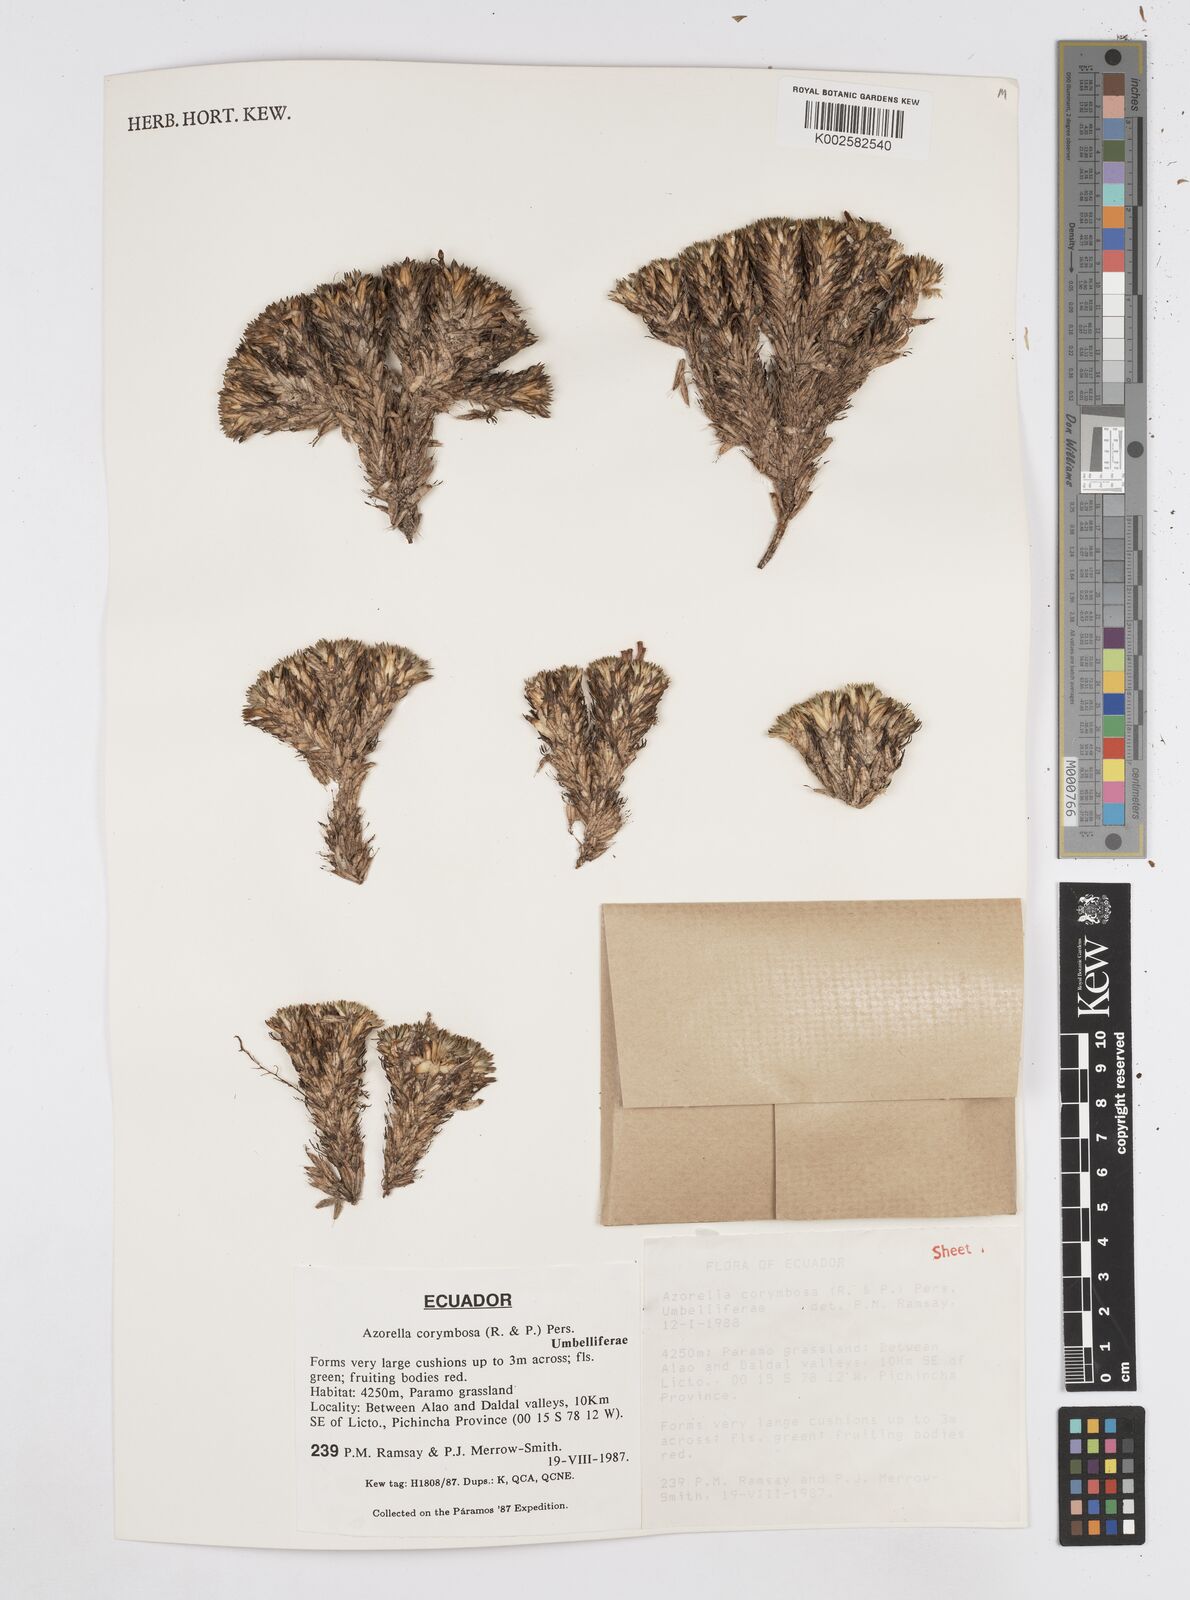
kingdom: Plantae
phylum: Tracheophyta
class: Magnoliopsida
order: Apiales
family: Apiaceae
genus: Azorella
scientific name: Azorella corymbosa
